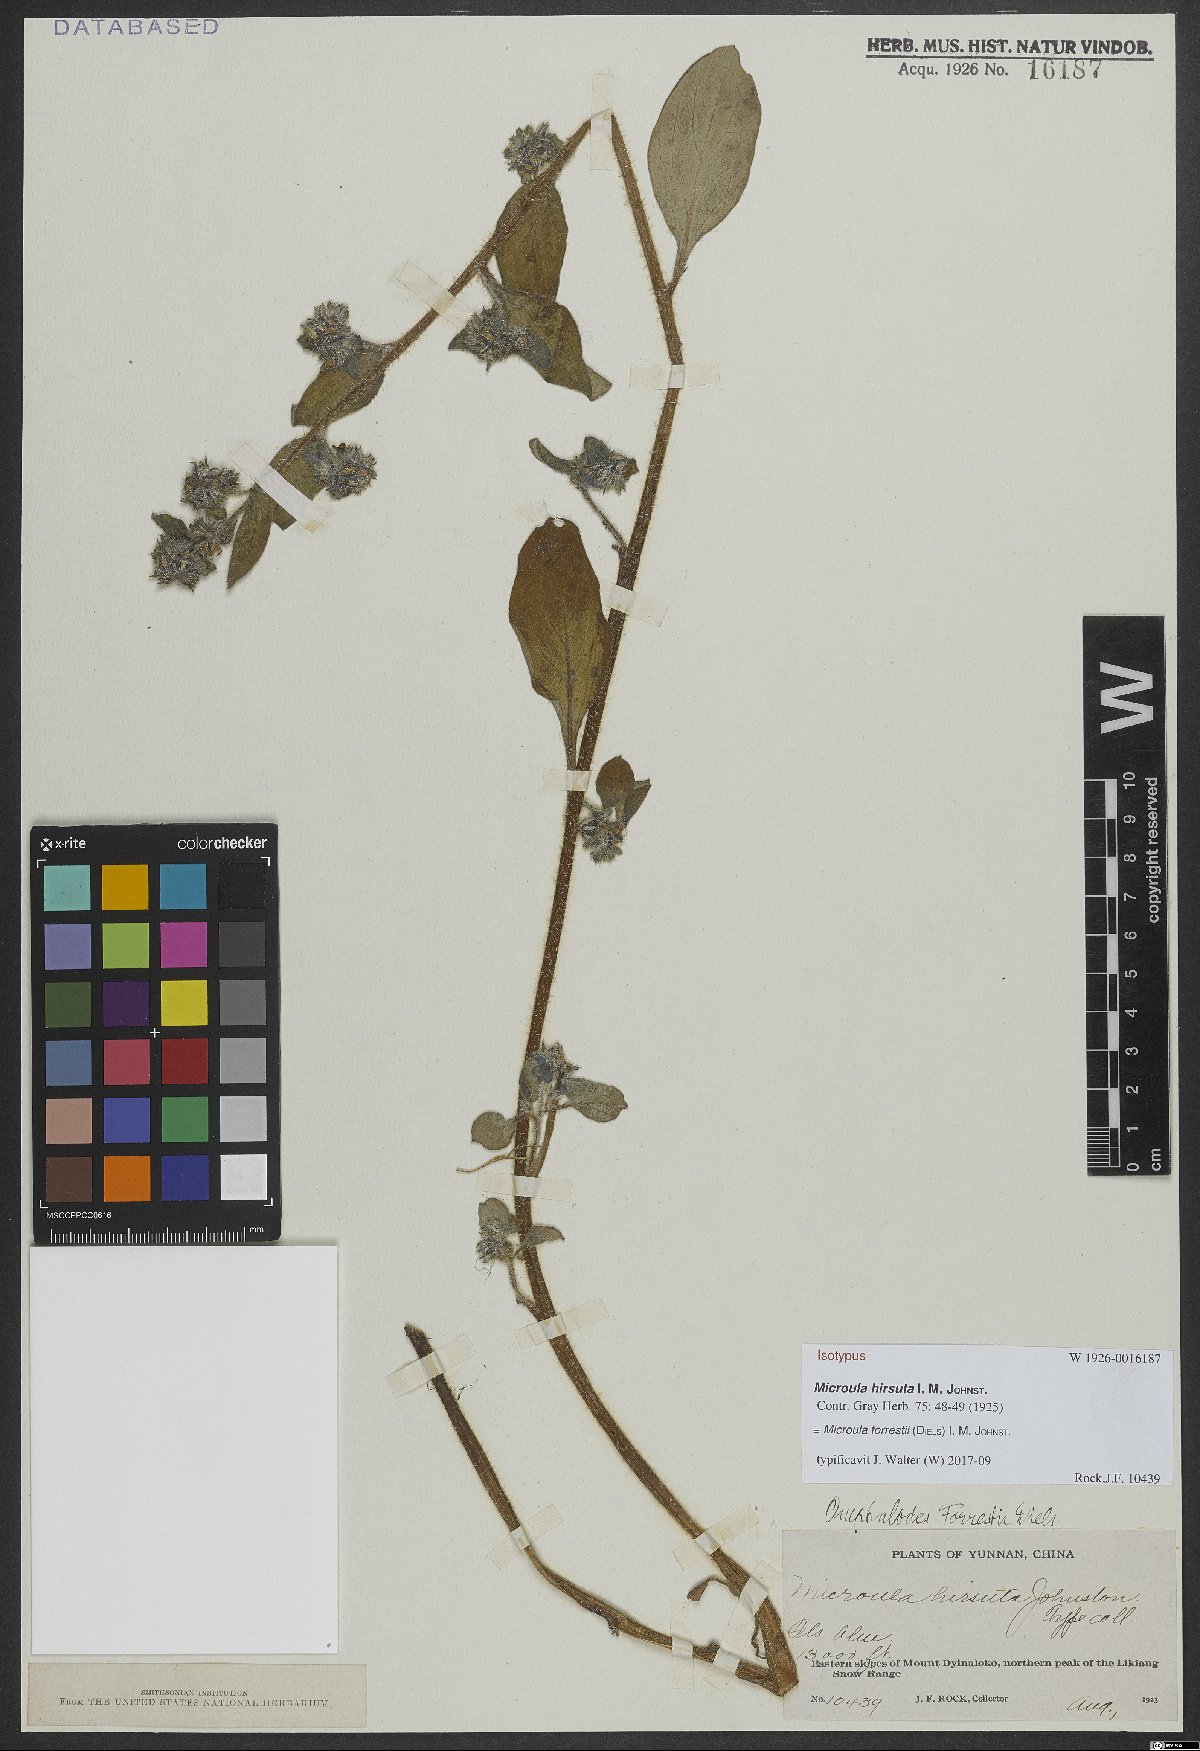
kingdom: Plantae
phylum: Tracheophyta
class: Magnoliopsida
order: Boraginales
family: Boraginaceae
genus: Microula
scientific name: Microula forrestii
